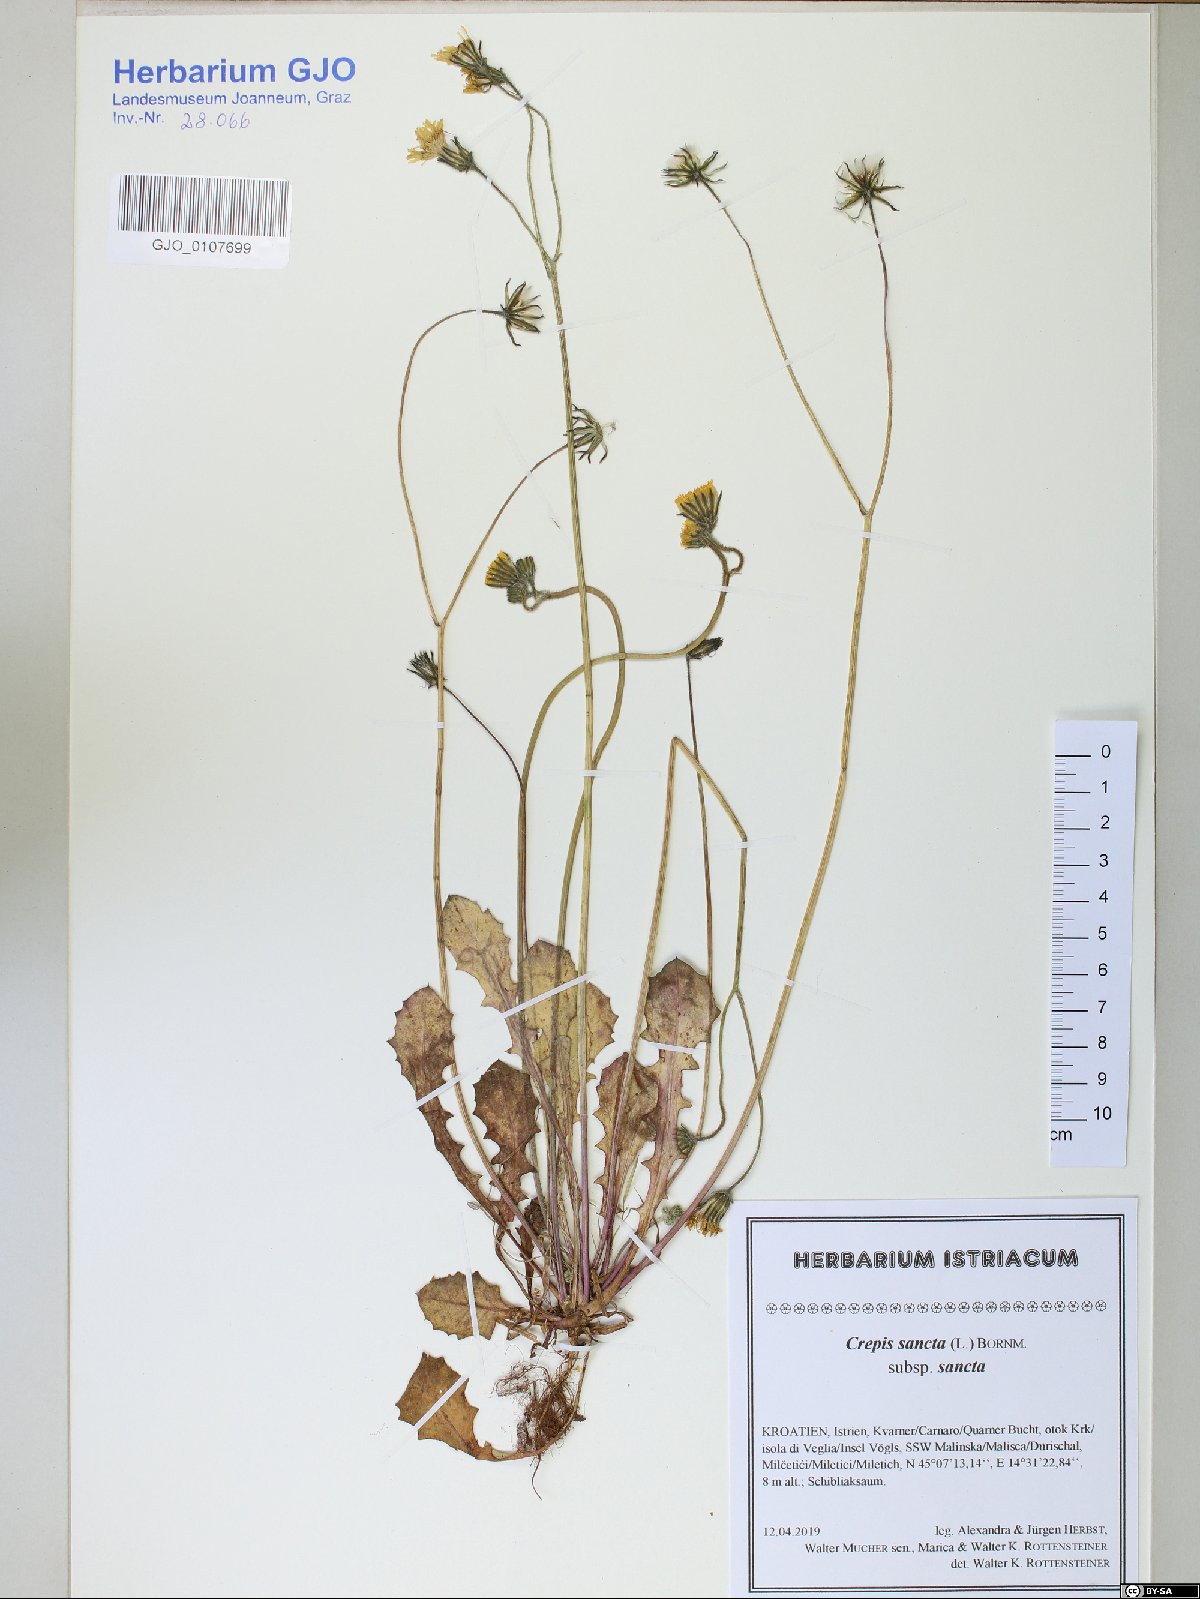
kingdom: Plantae
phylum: Tracheophyta
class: Magnoliopsida
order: Asterales
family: Asteraceae
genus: Crepis
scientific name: Crepis sancta
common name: Hawk's-beard
